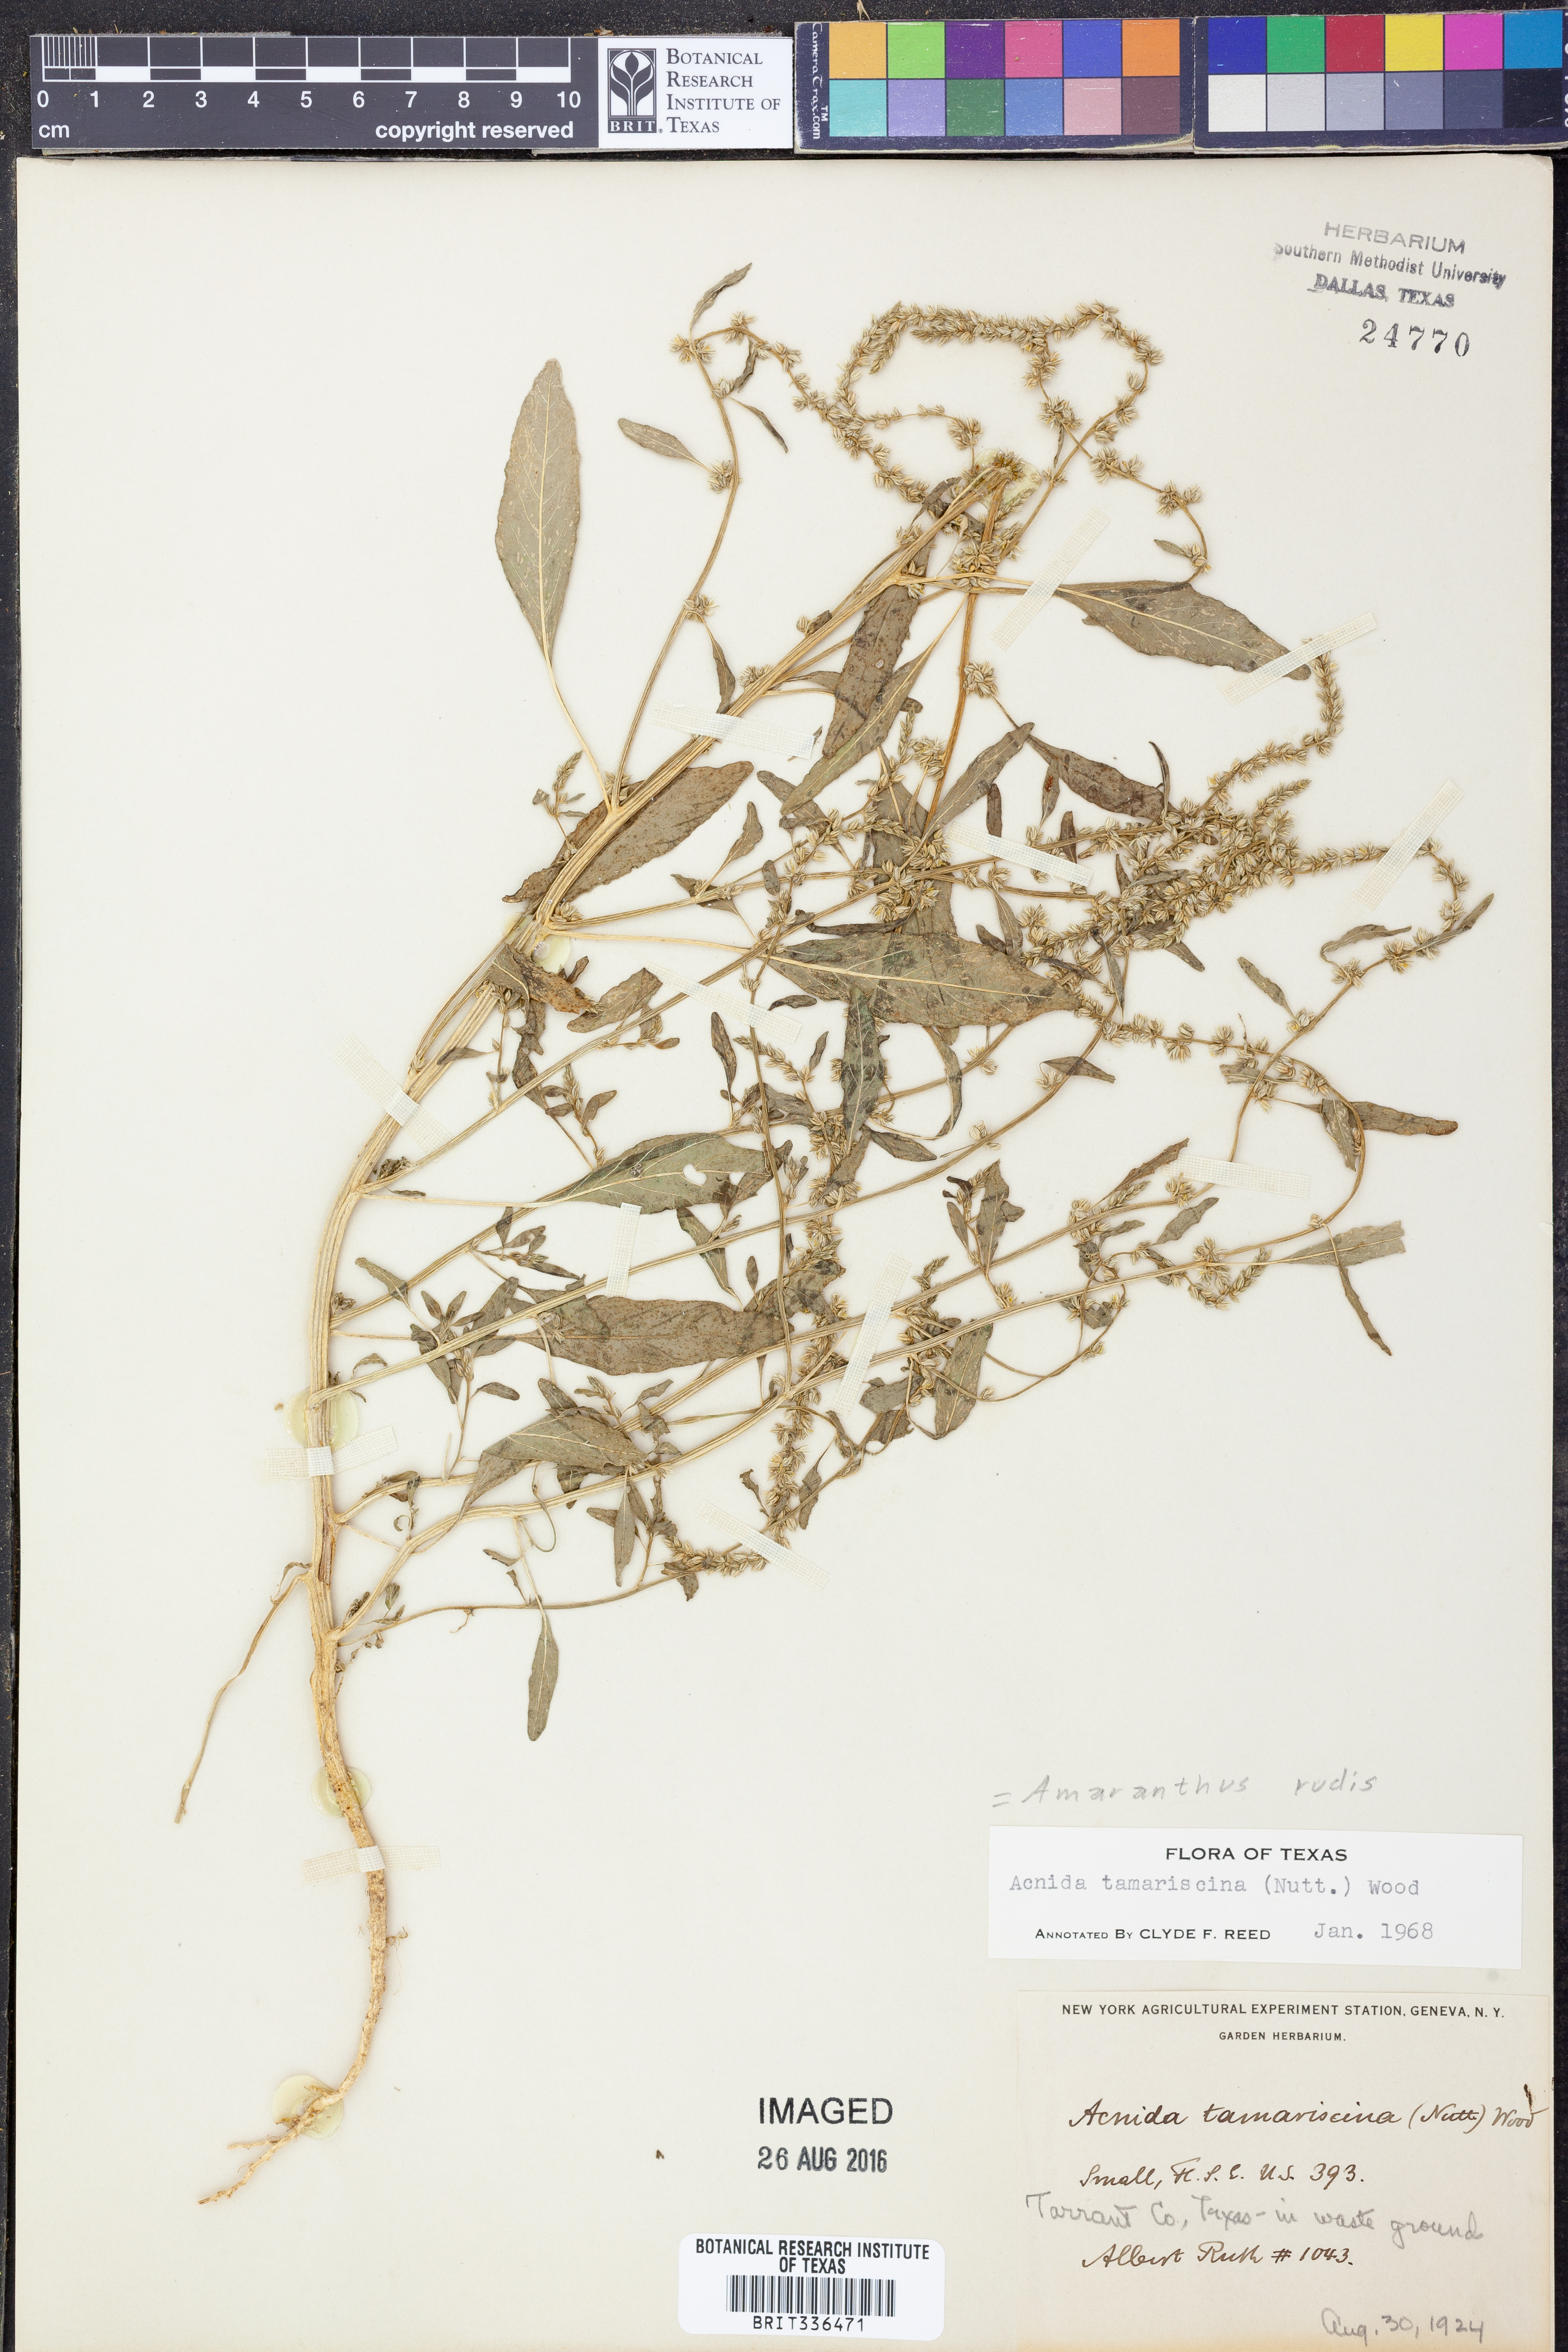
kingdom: Plantae
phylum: Tracheophyta
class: Magnoliopsida
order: Caryophyllales
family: Amaranthaceae
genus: Amaranthus
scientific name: Amaranthus tuberculatus
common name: Rough-fruit amaranth
